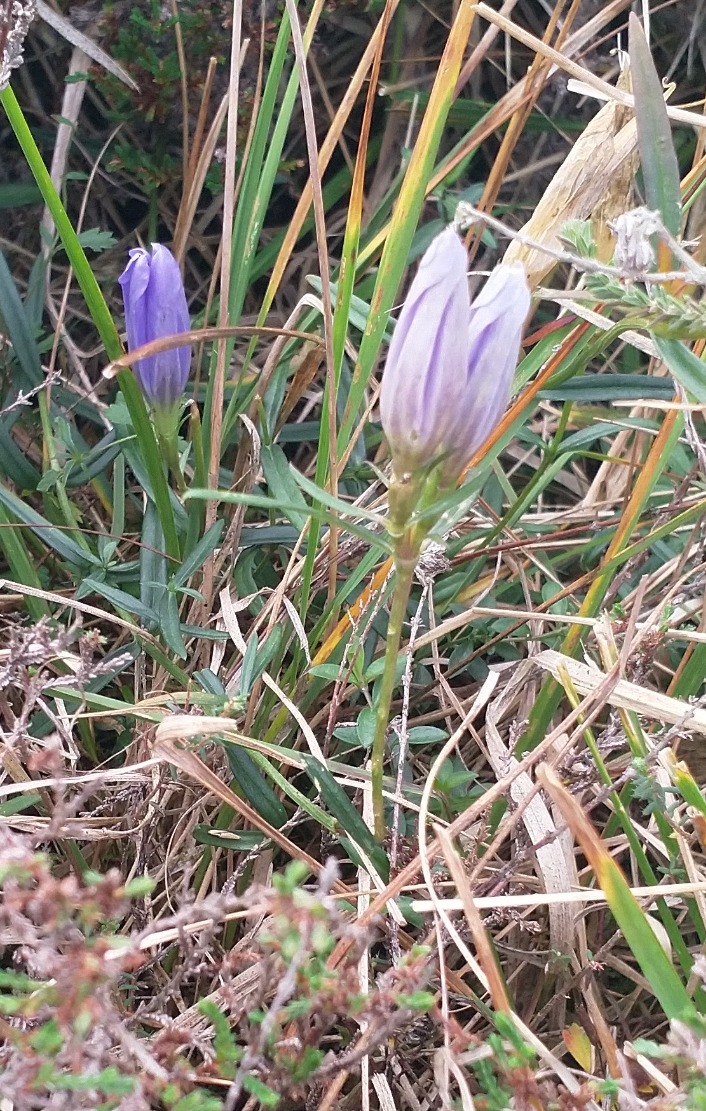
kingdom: Plantae
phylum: Tracheophyta
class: Magnoliopsida
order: Gentianales
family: Gentianaceae
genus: Gentiana
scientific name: Gentiana pneumonanthe
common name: Klokke-ensian
